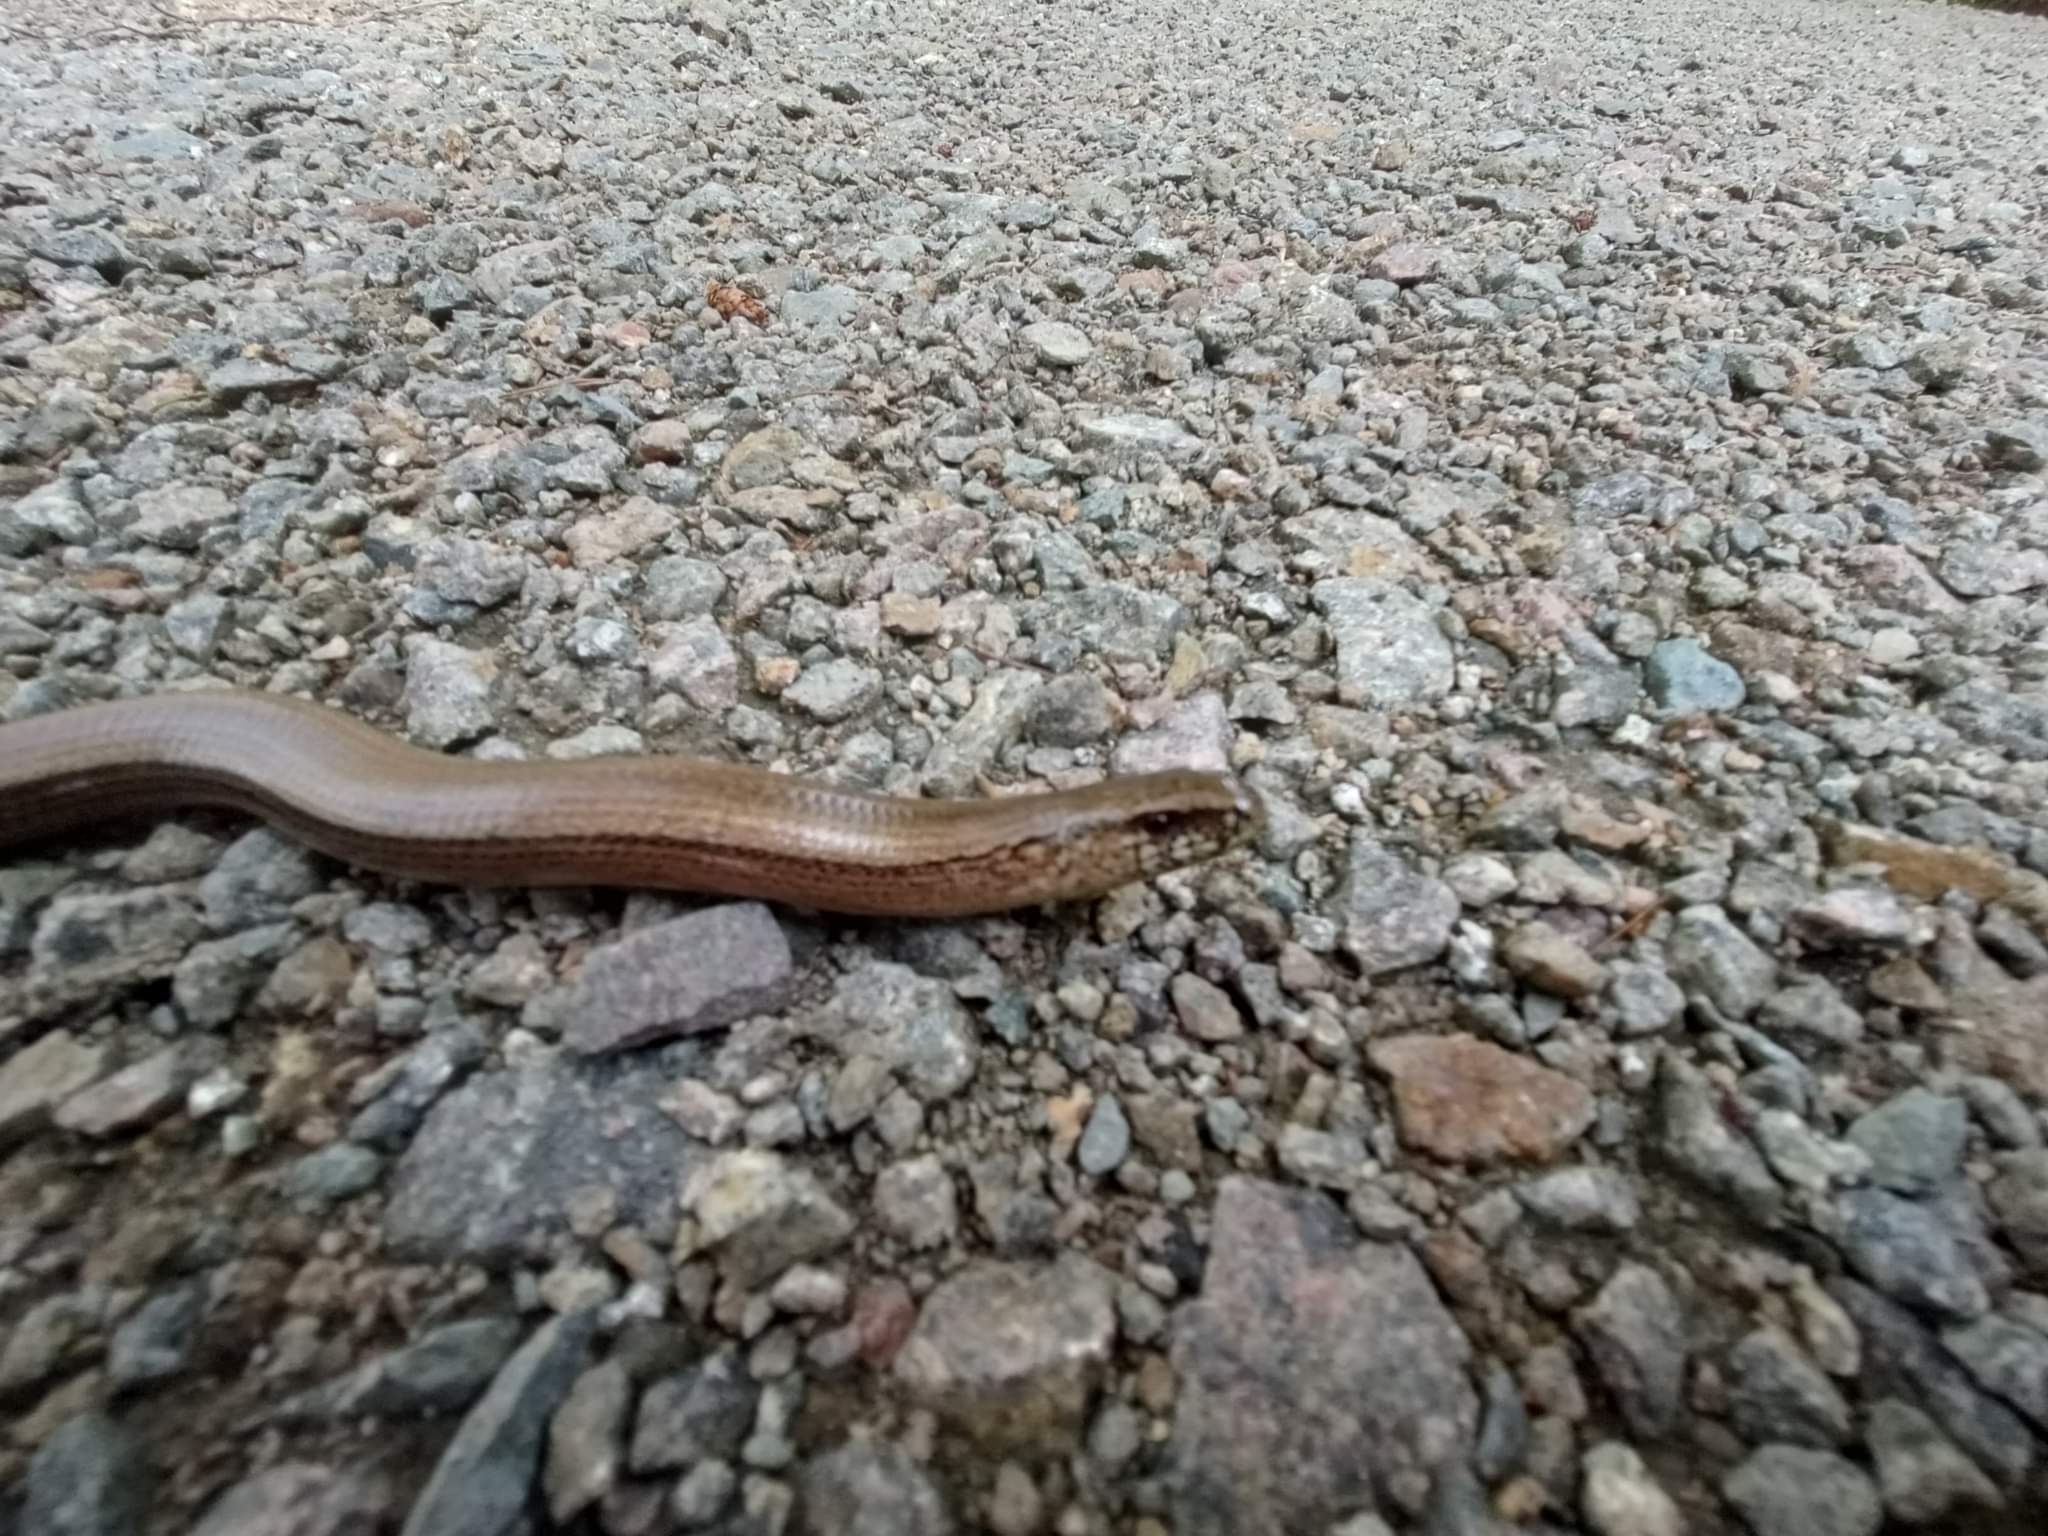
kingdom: Animalia
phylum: Chordata
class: Squamata
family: Anguidae
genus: Anguis
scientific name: Anguis fragilis
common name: Stålorm
